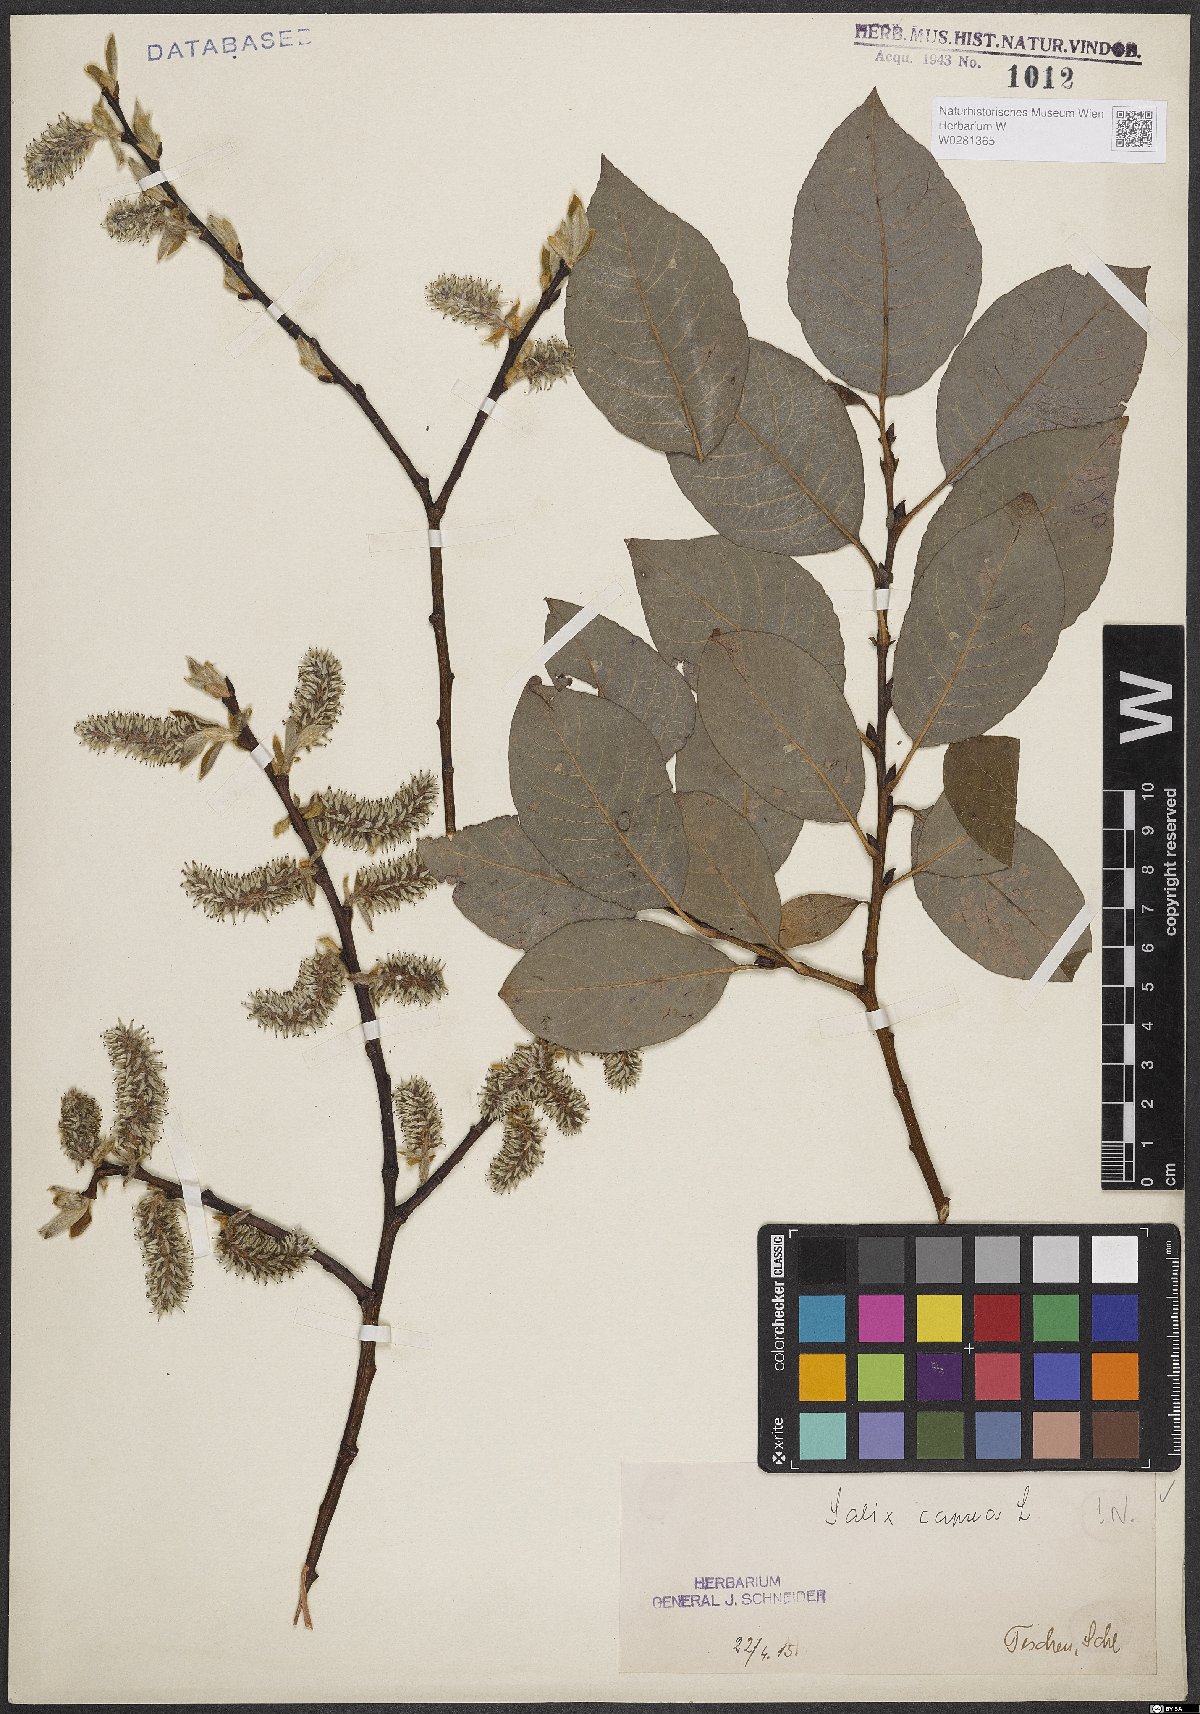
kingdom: Plantae
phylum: Tracheophyta
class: Magnoliopsida
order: Malpighiales
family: Salicaceae
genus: Salix
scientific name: Salix caprea
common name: Goat willow
